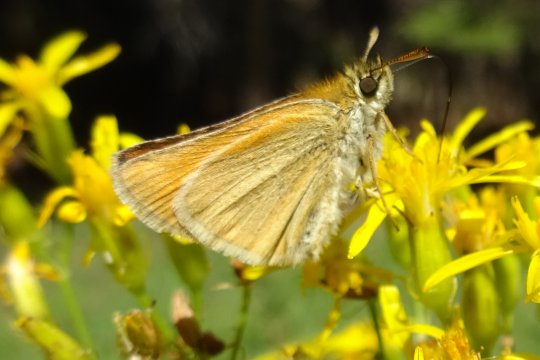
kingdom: Animalia
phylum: Arthropoda
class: Insecta
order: Lepidoptera
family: Hesperiidae
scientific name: Hesperiidae
